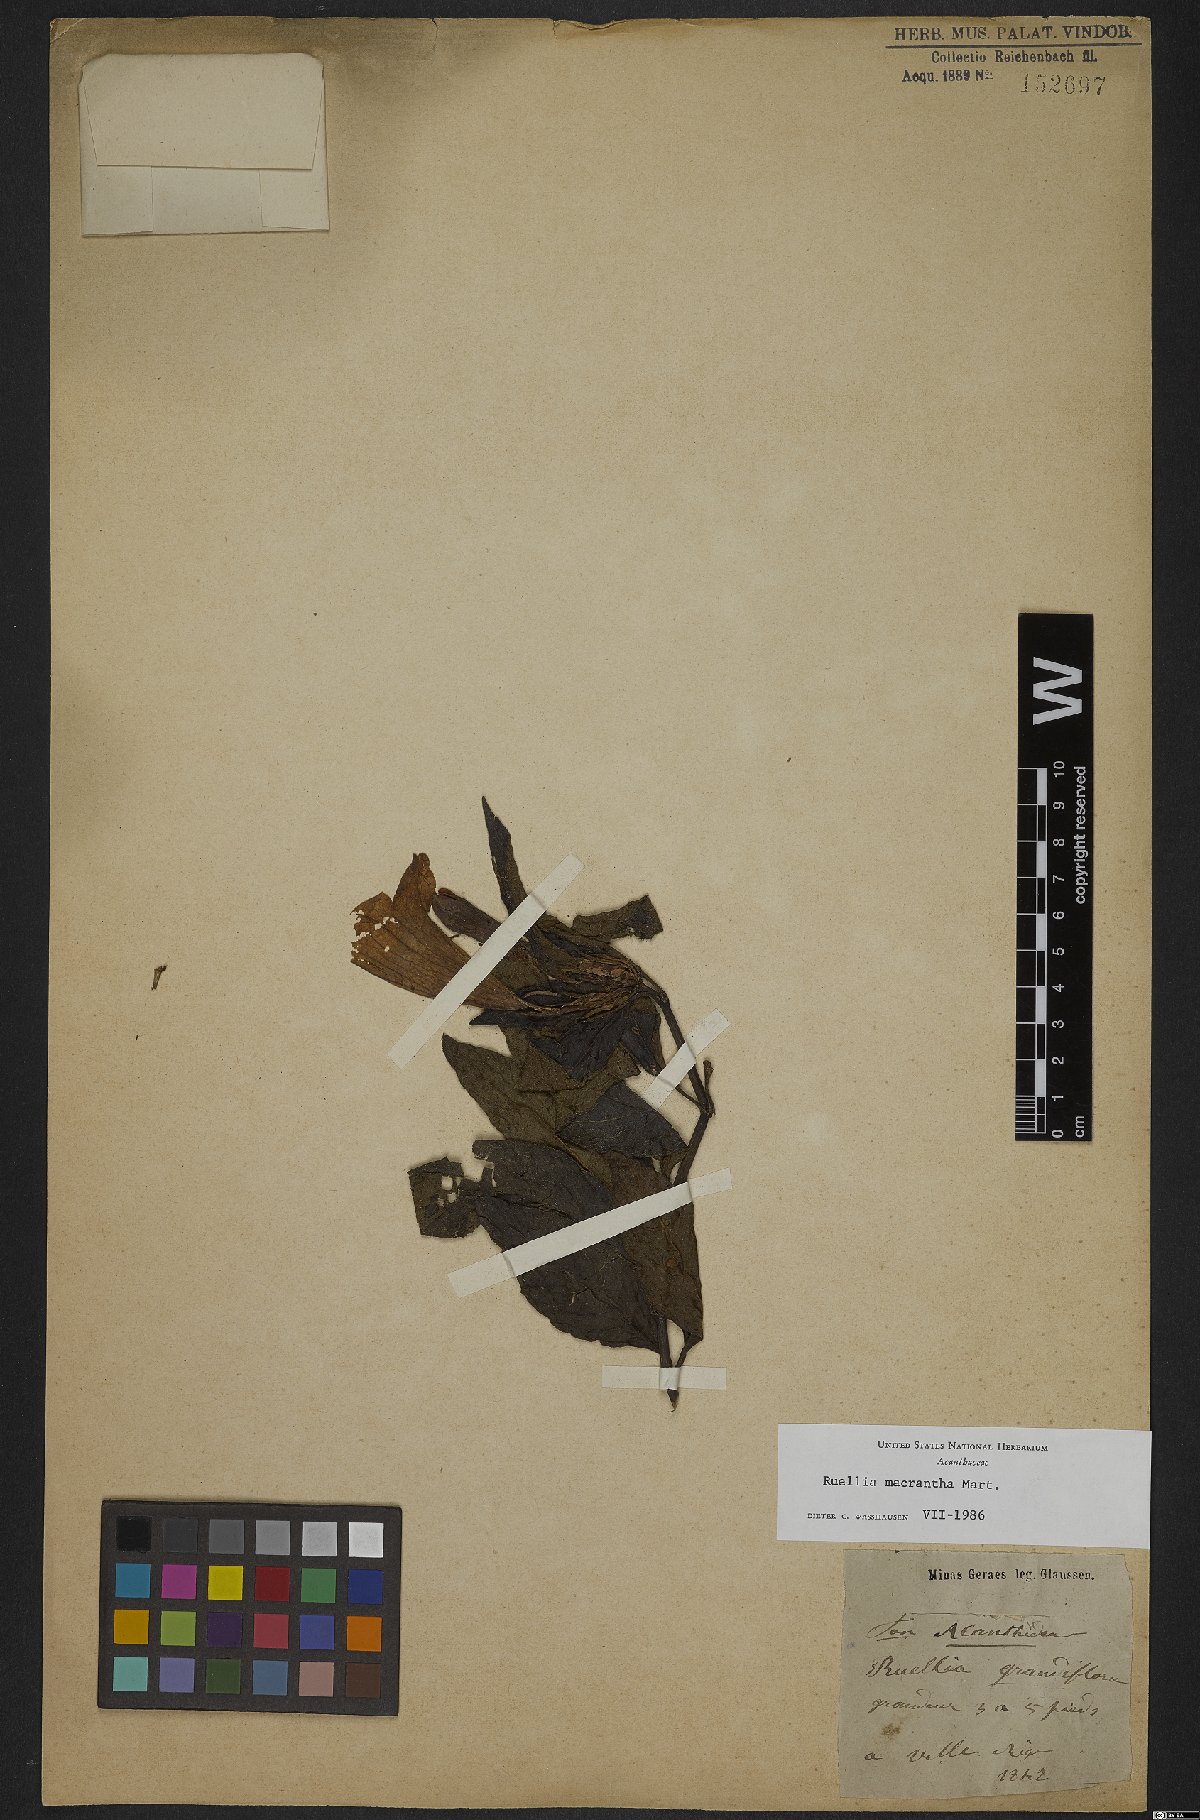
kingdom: Plantae
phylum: Tracheophyta
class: Magnoliopsida
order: Lamiales
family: Acanthaceae
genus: Ruellia
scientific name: Ruellia laxa
